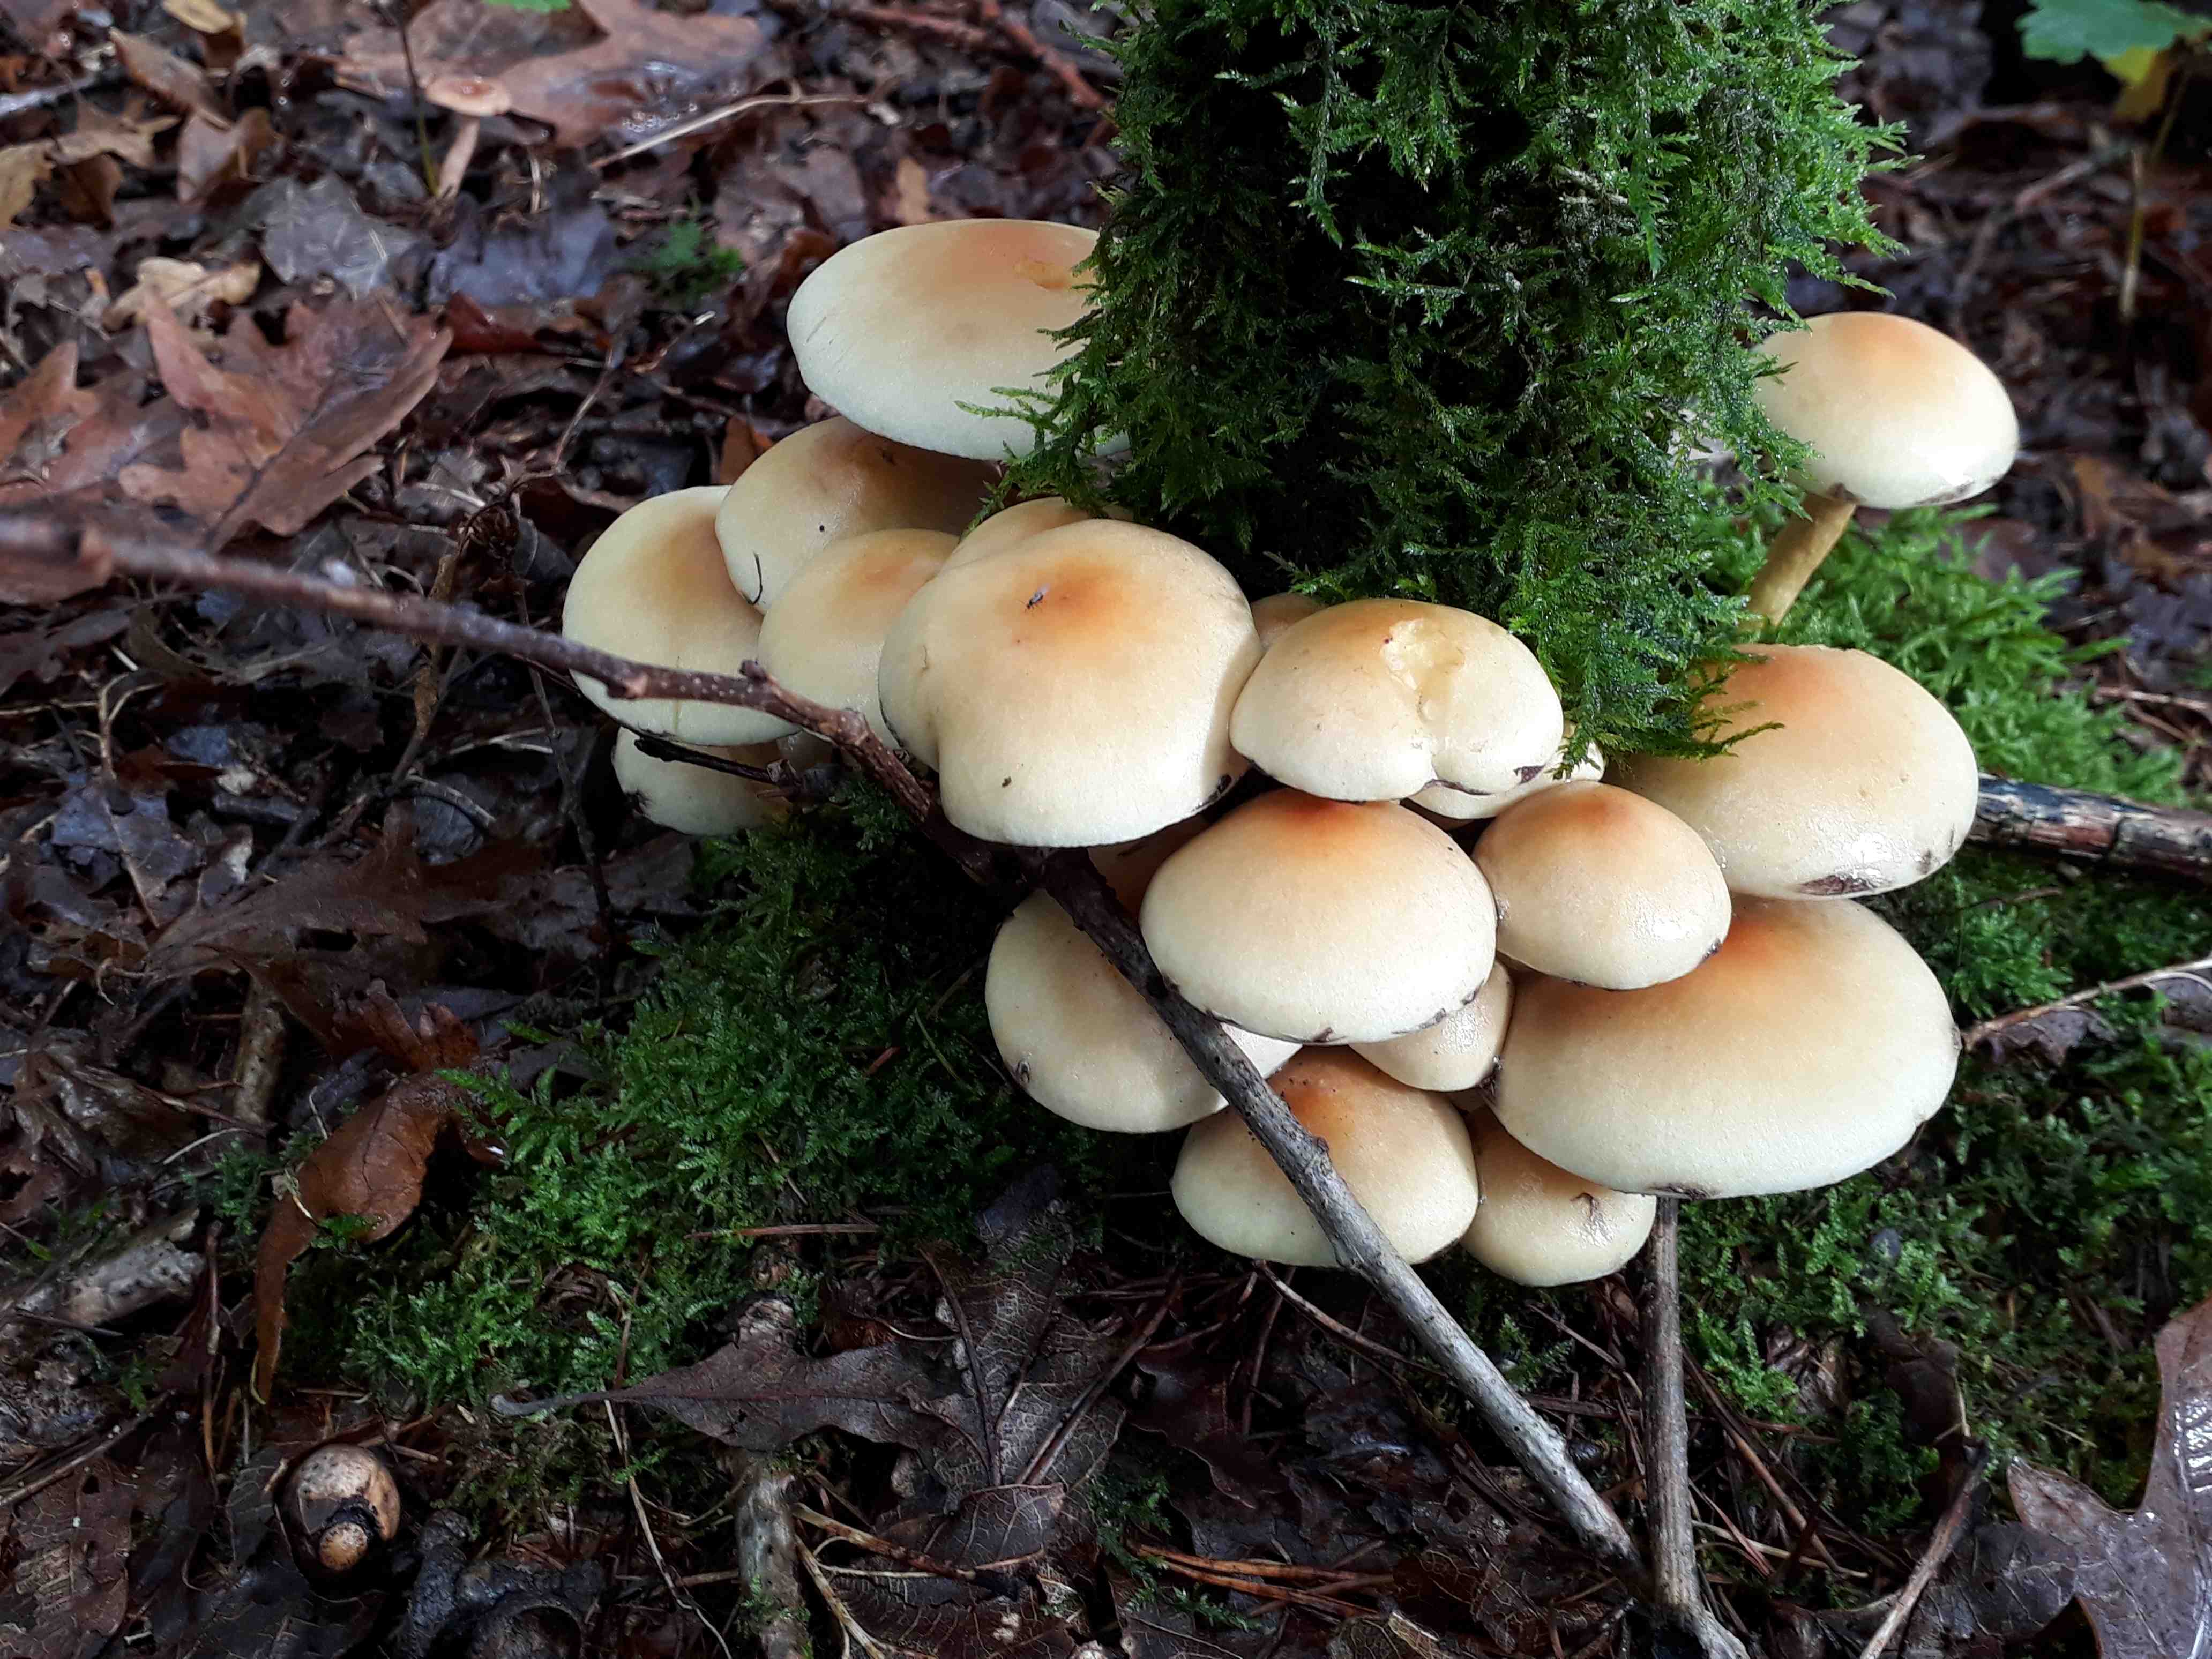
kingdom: Fungi
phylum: Basidiomycota
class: Agaricomycetes
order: Agaricales
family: Strophariaceae
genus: Hypholoma
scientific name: Hypholoma fasciculare
